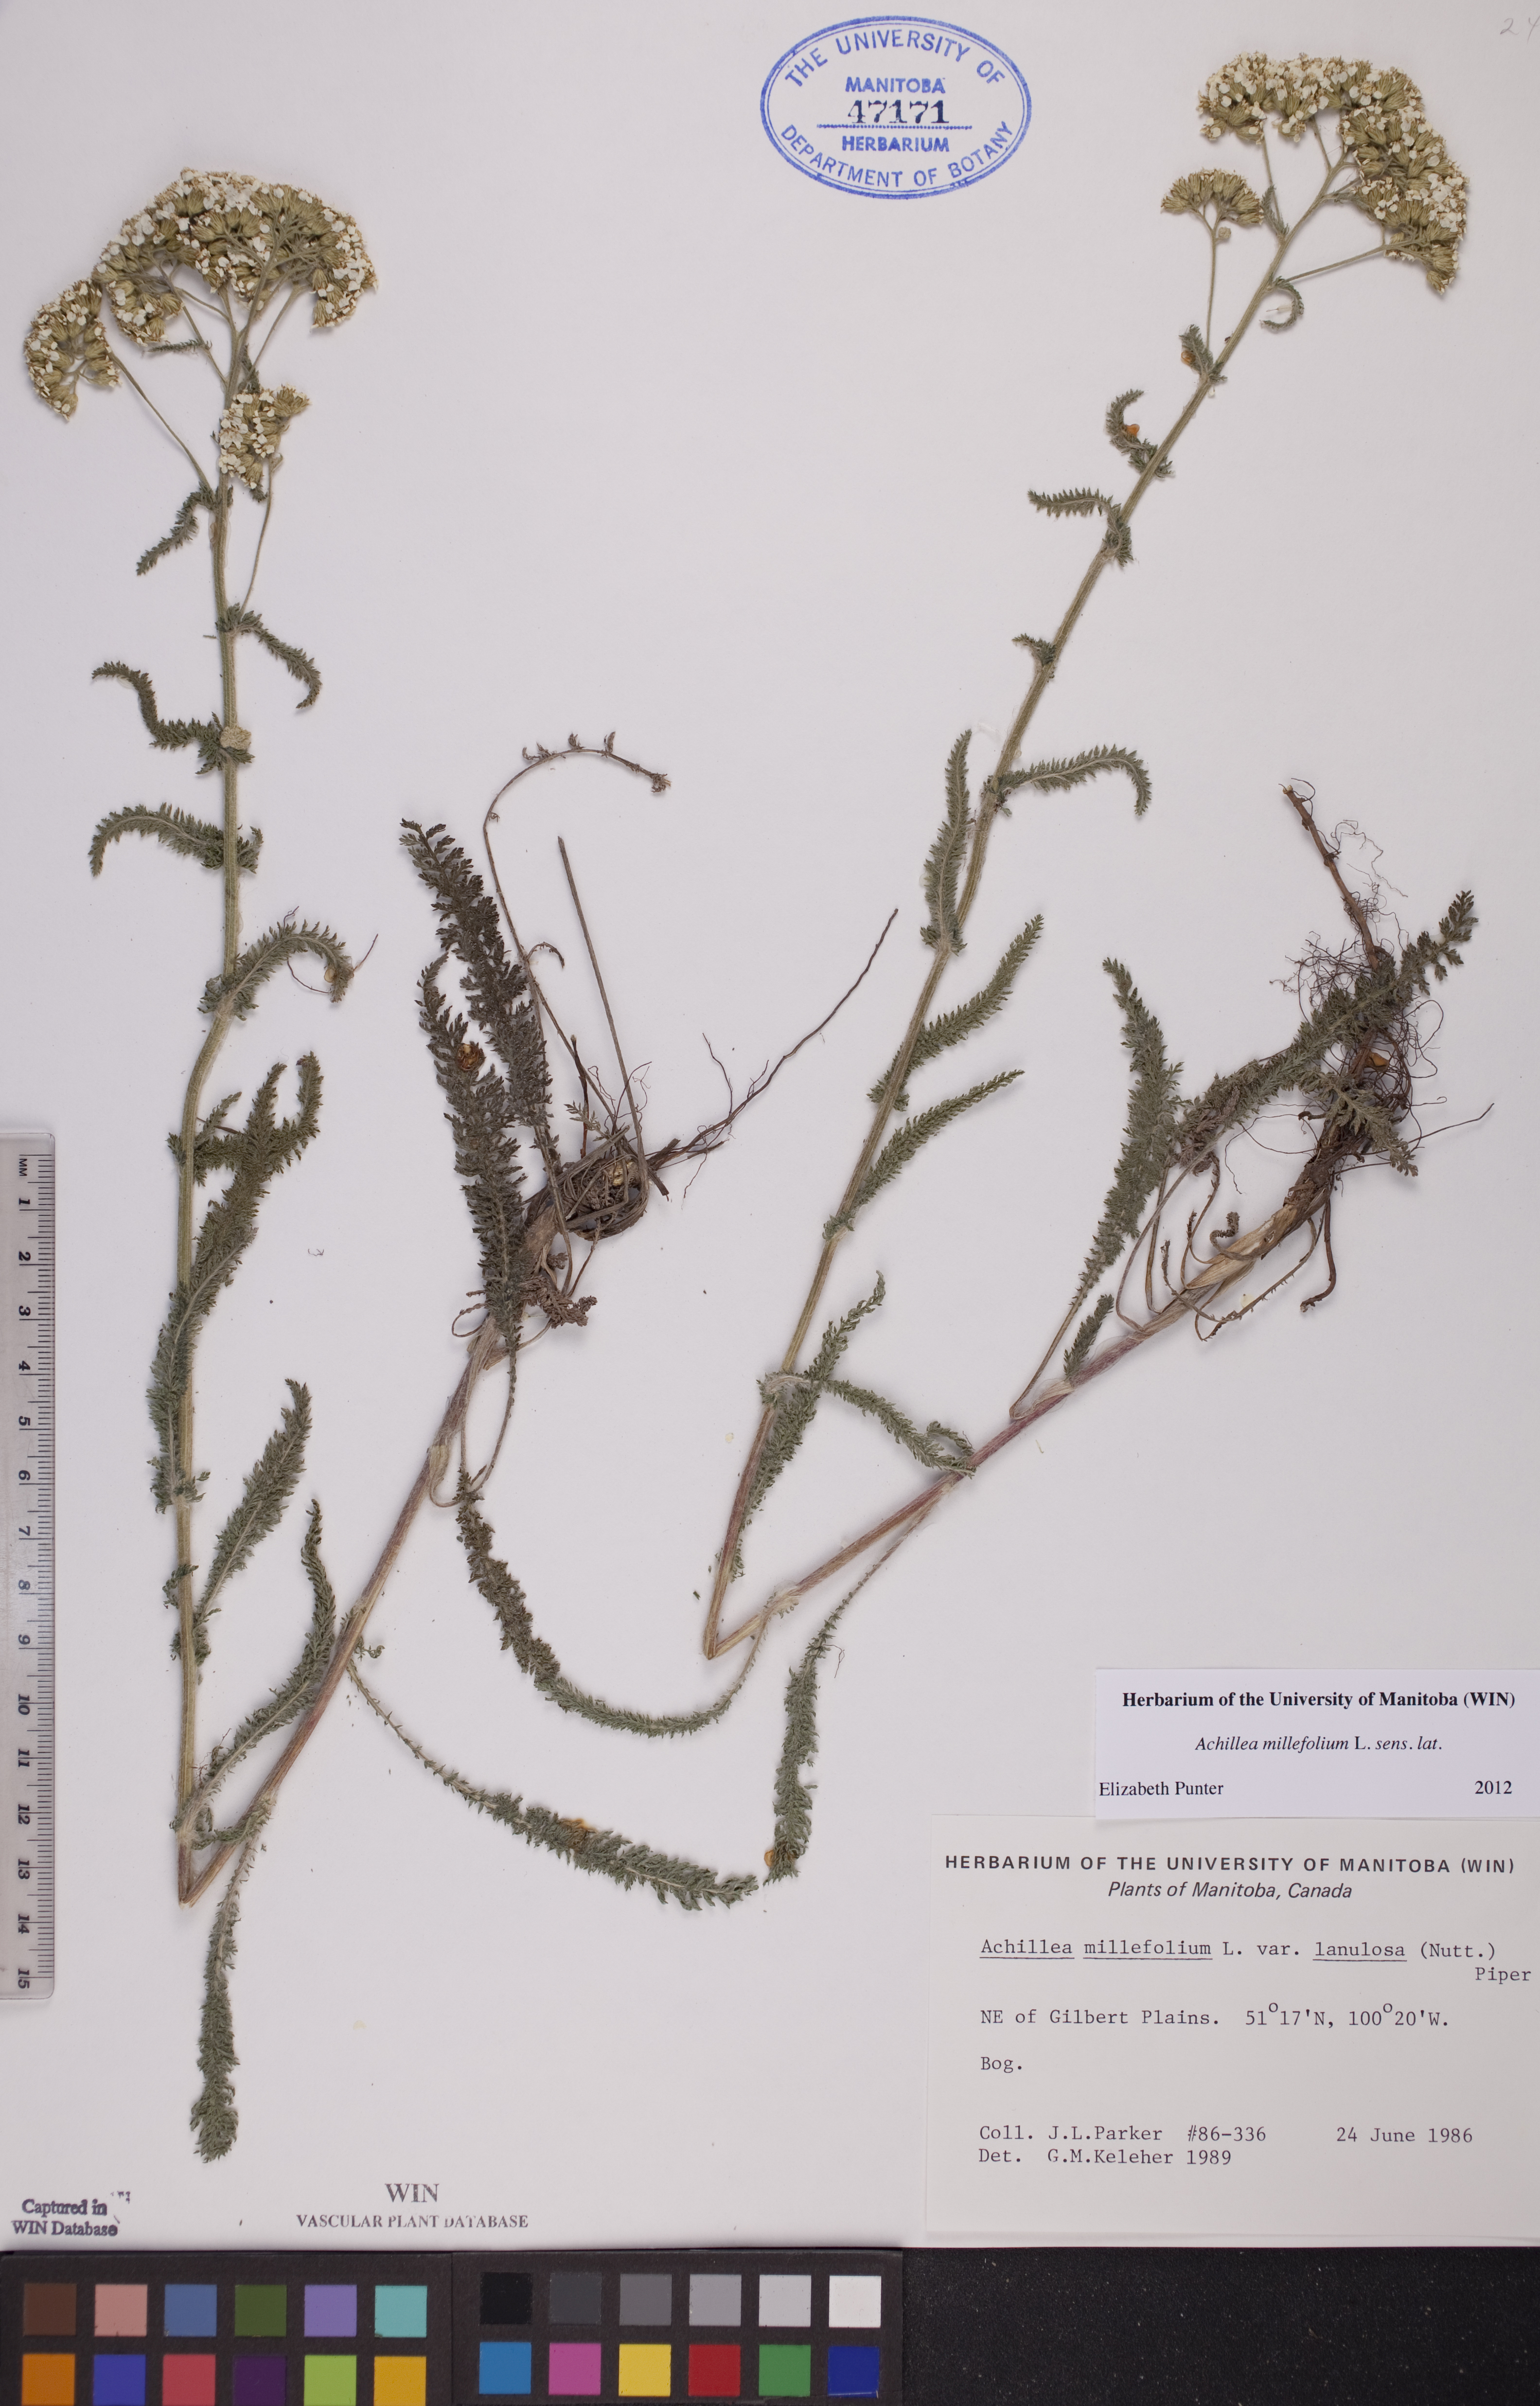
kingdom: Plantae
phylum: Tracheophyta
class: Magnoliopsida
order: Asterales
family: Asteraceae
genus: Achillea
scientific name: Achillea millefolium
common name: Yarrow
